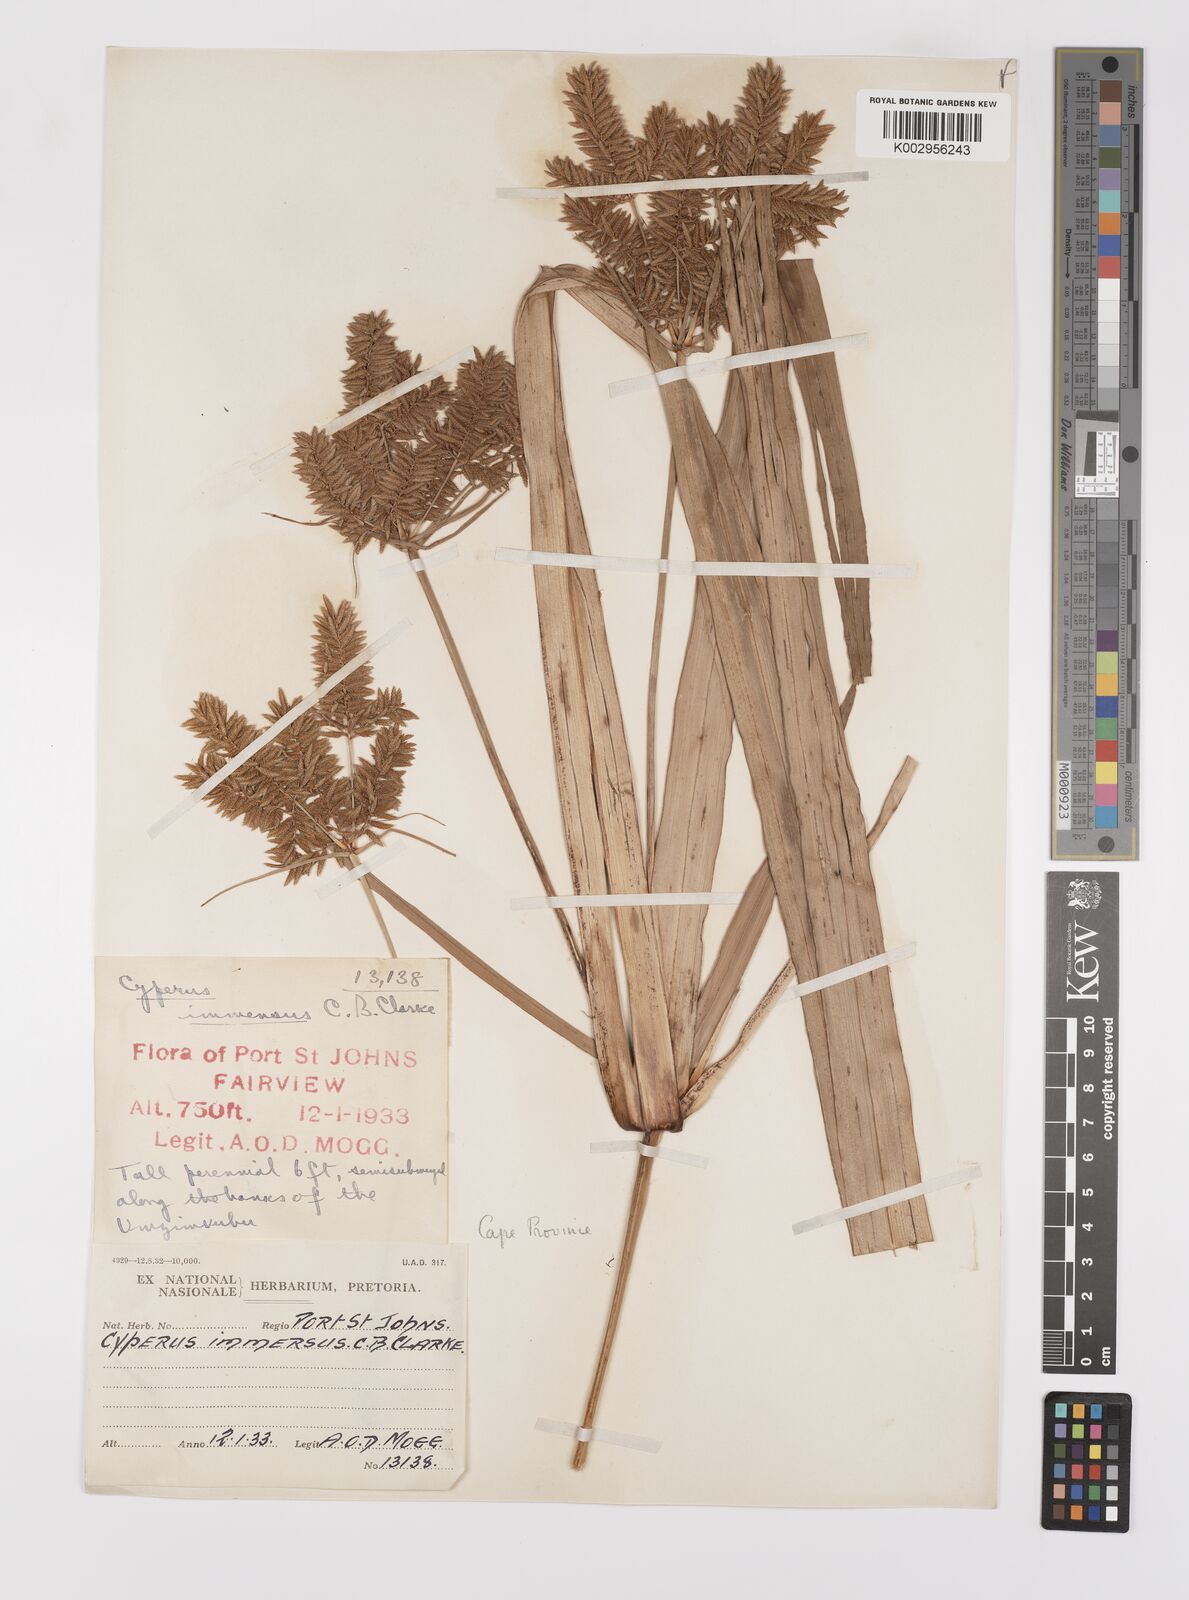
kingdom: Plantae
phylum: Tracheophyta
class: Liliopsida
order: Poales
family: Cyperaceae
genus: Cyperus
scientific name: Cyperus dives
